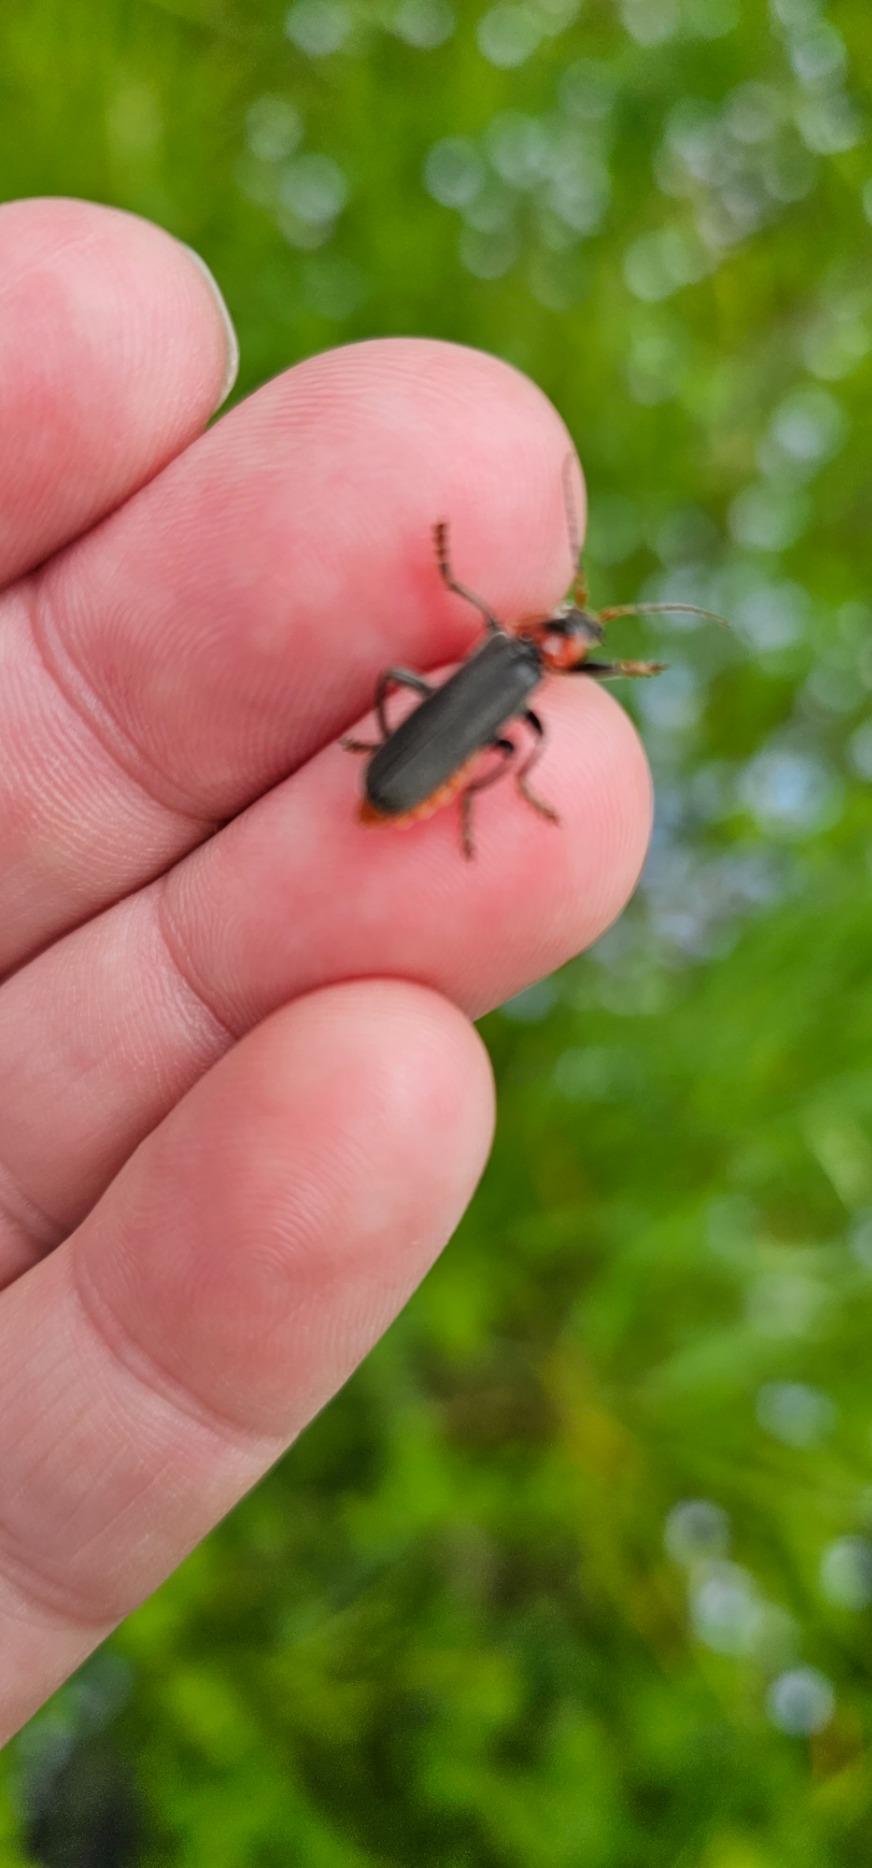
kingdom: Animalia
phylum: Arthropoda
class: Insecta
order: Coleoptera
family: Cantharidae
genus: Cantharis
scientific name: Cantharis fusca
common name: Stor blødvinge
